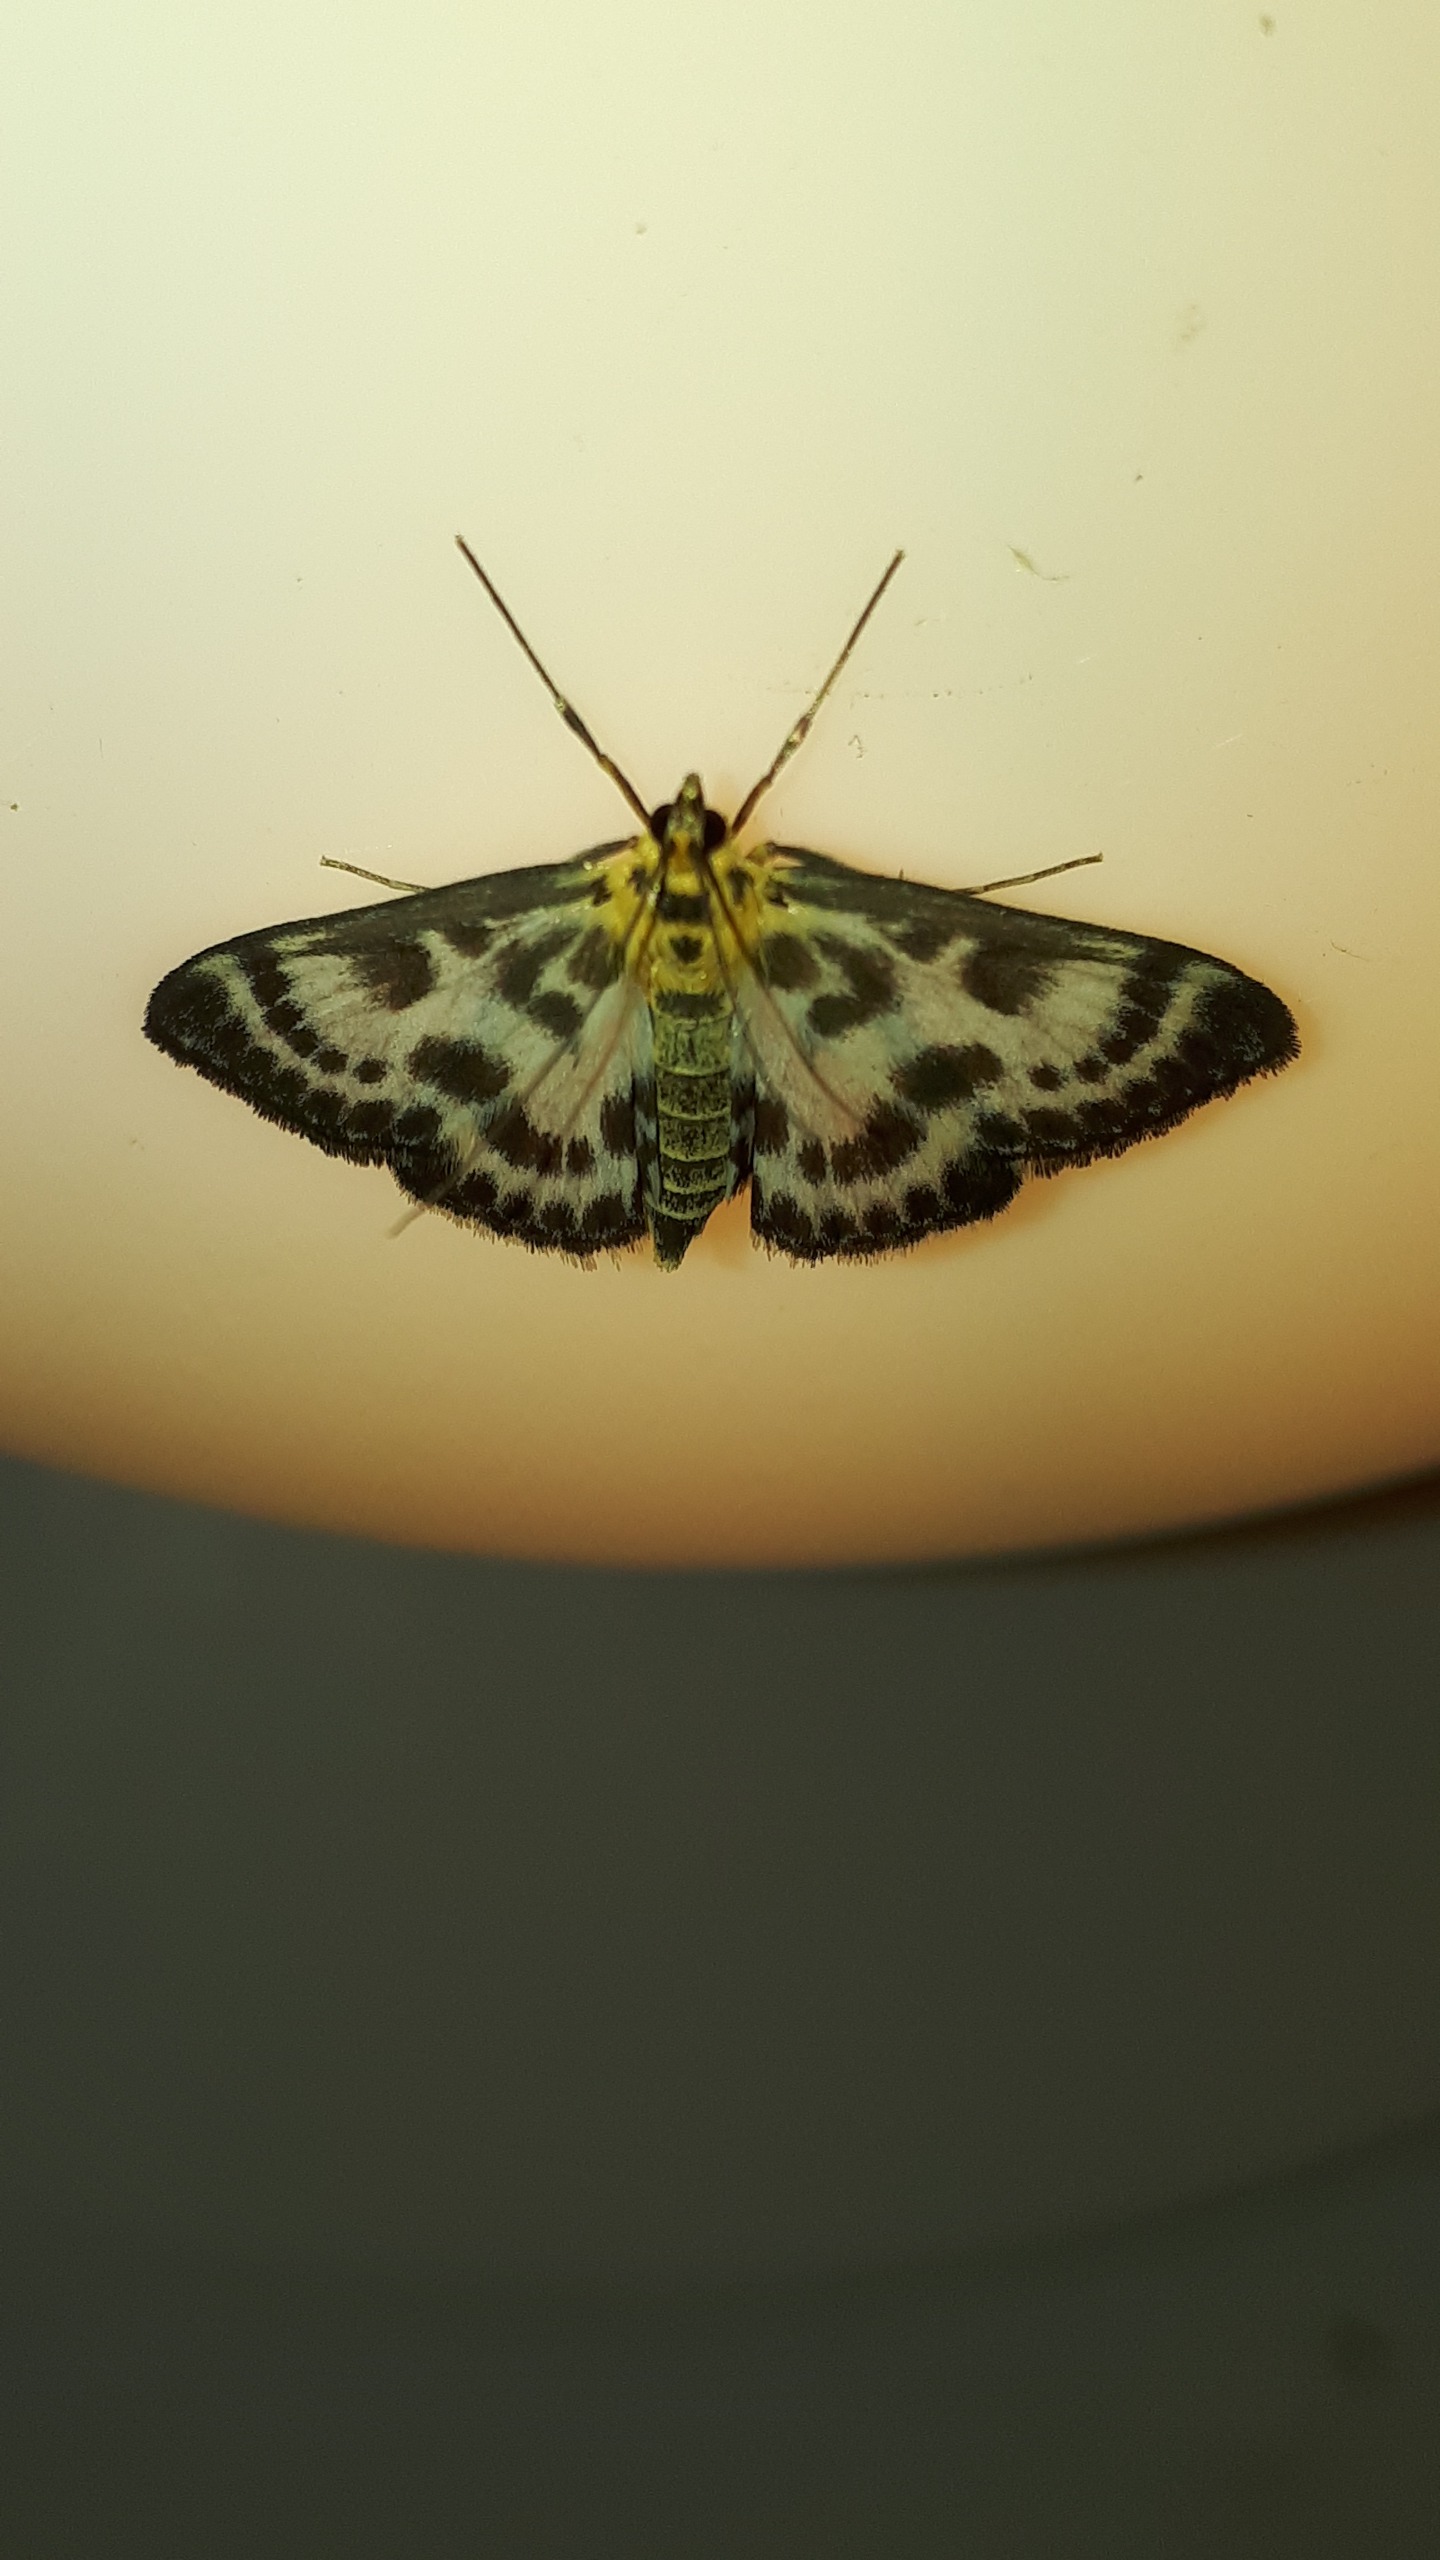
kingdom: Animalia
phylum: Arthropoda
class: Insecta
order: Lepidoptera
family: Crambidae
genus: Anania
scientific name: Anania hortulata
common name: Nældehalvmøl
